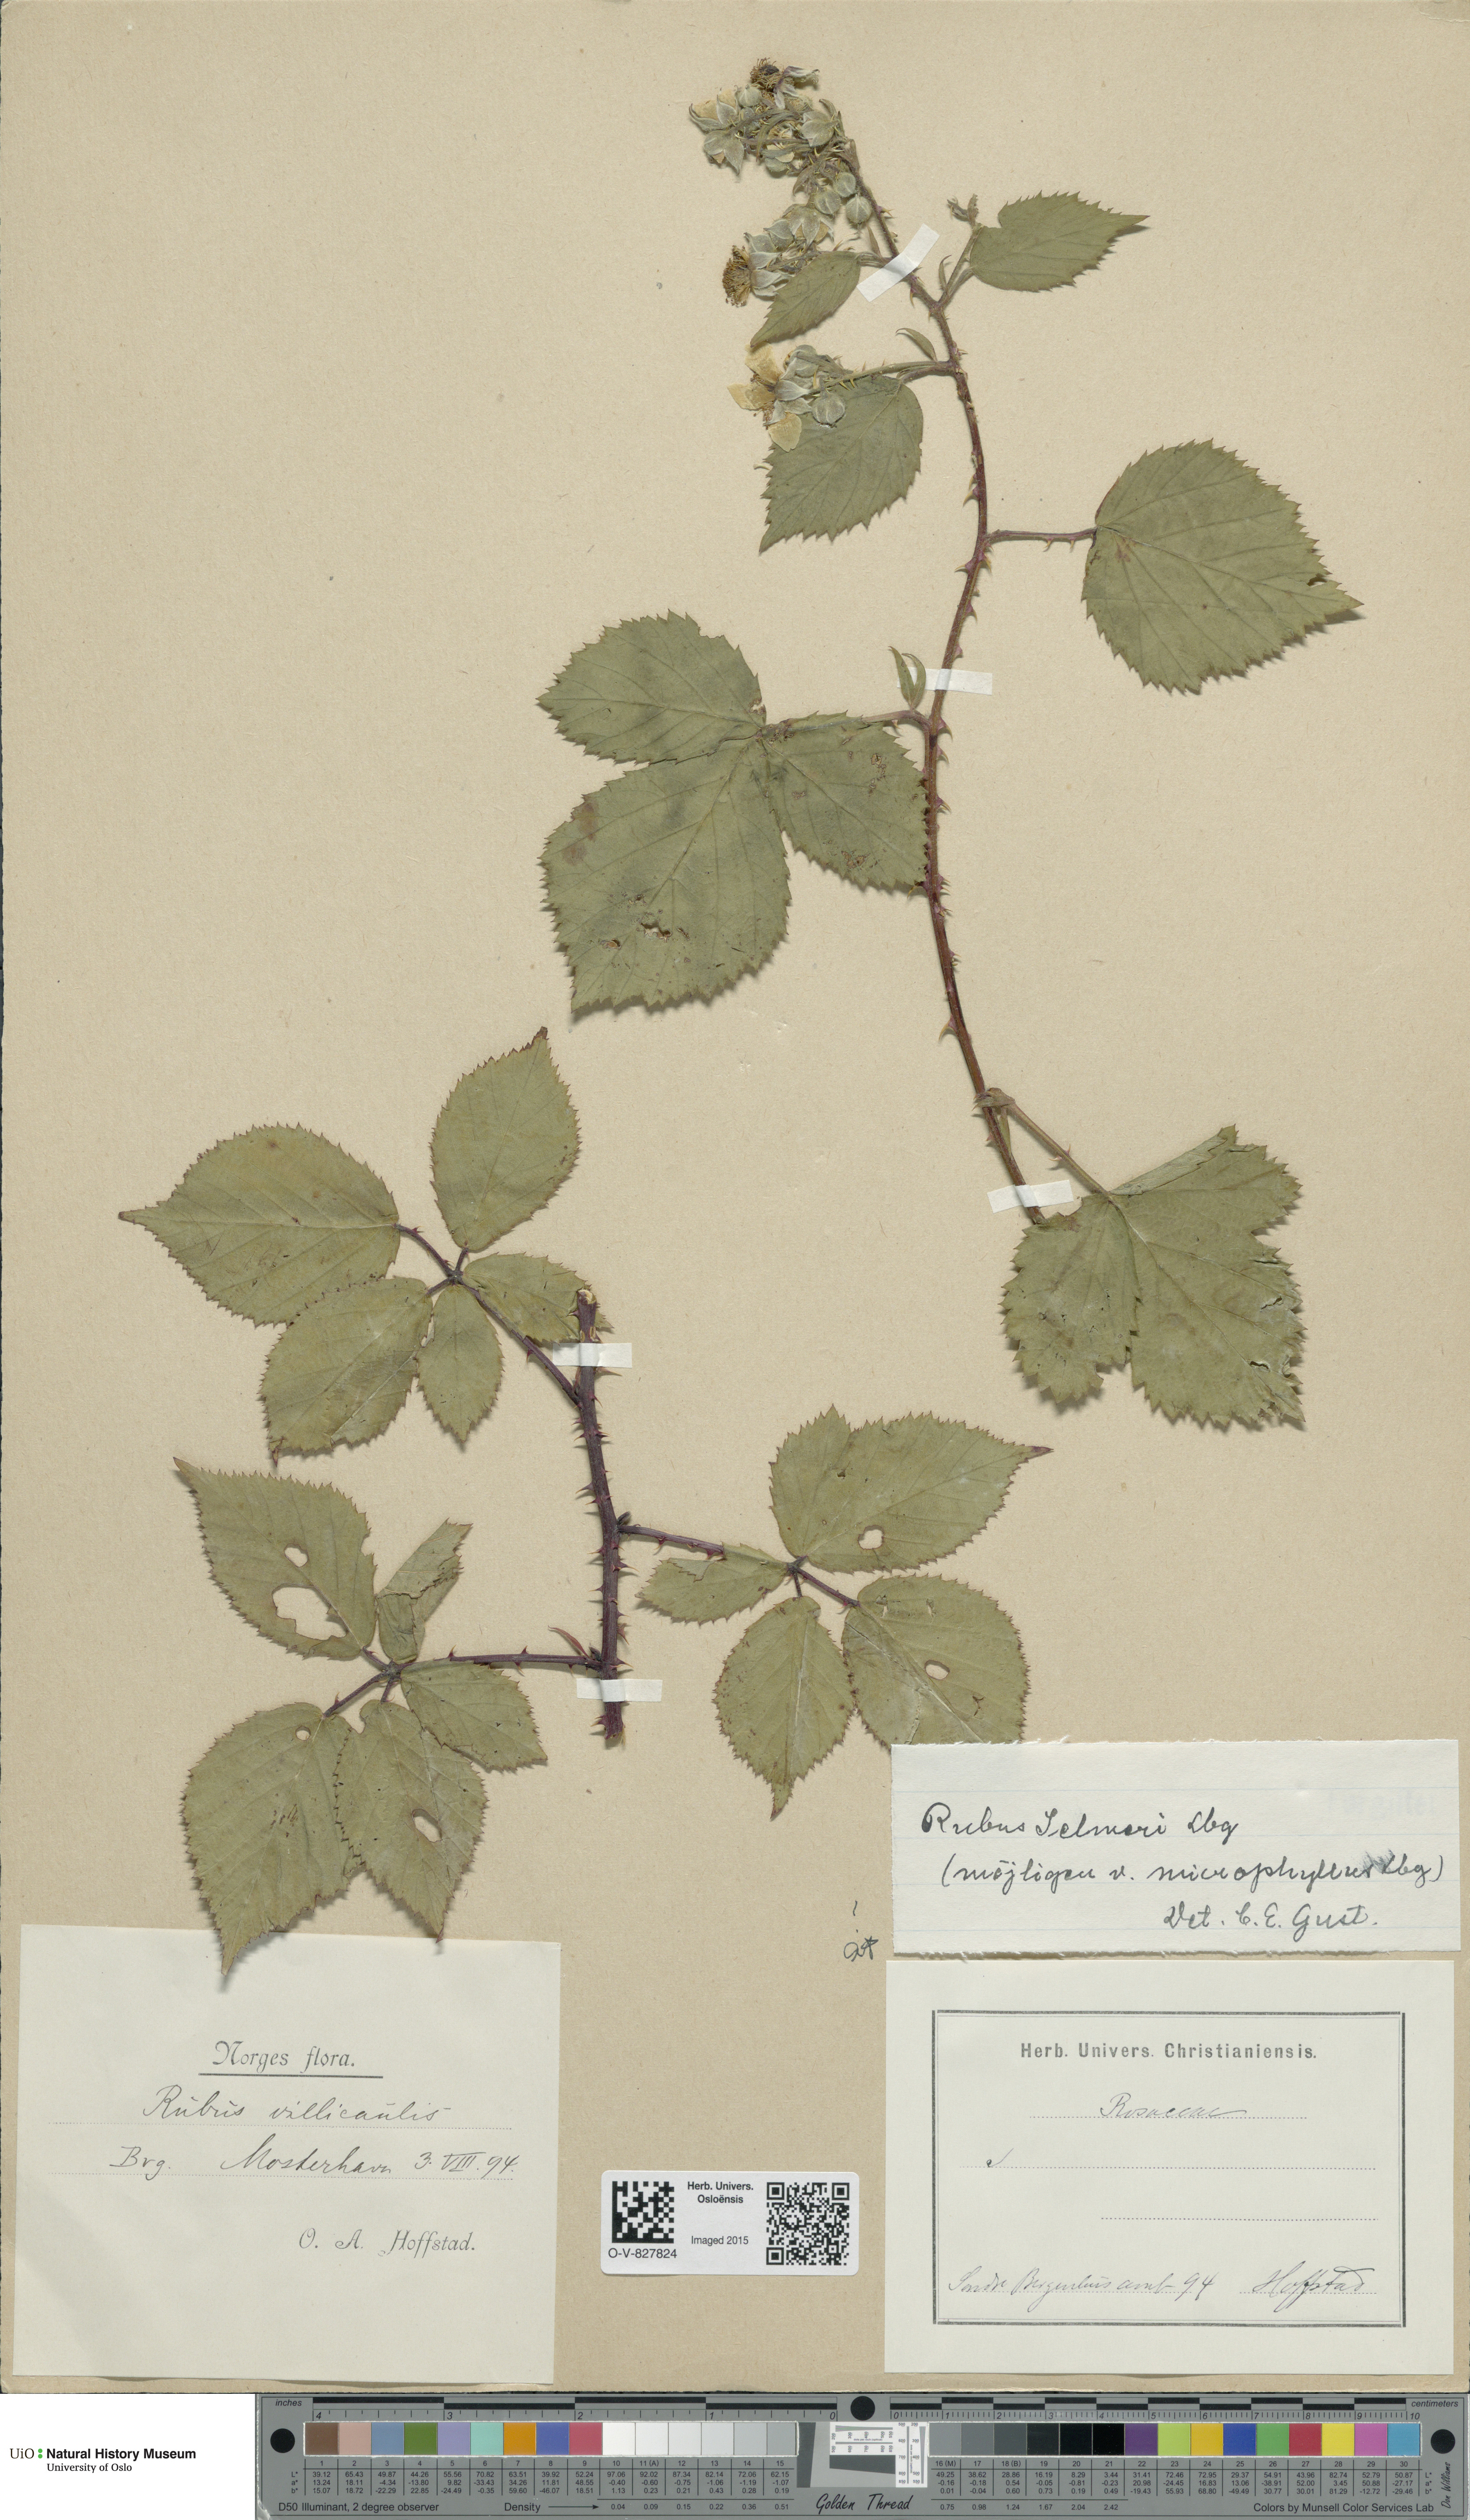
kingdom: Plantae
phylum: Tracheophyta
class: Magnoliopsida
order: Rosales
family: Rosaceae
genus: Rubus
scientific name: Rubus nemoralis
